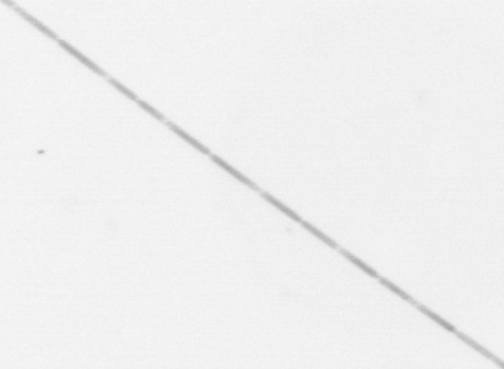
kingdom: Chromista
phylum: Ochrophyta
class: Bacillariophyceae
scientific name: Bacillariophyceae
